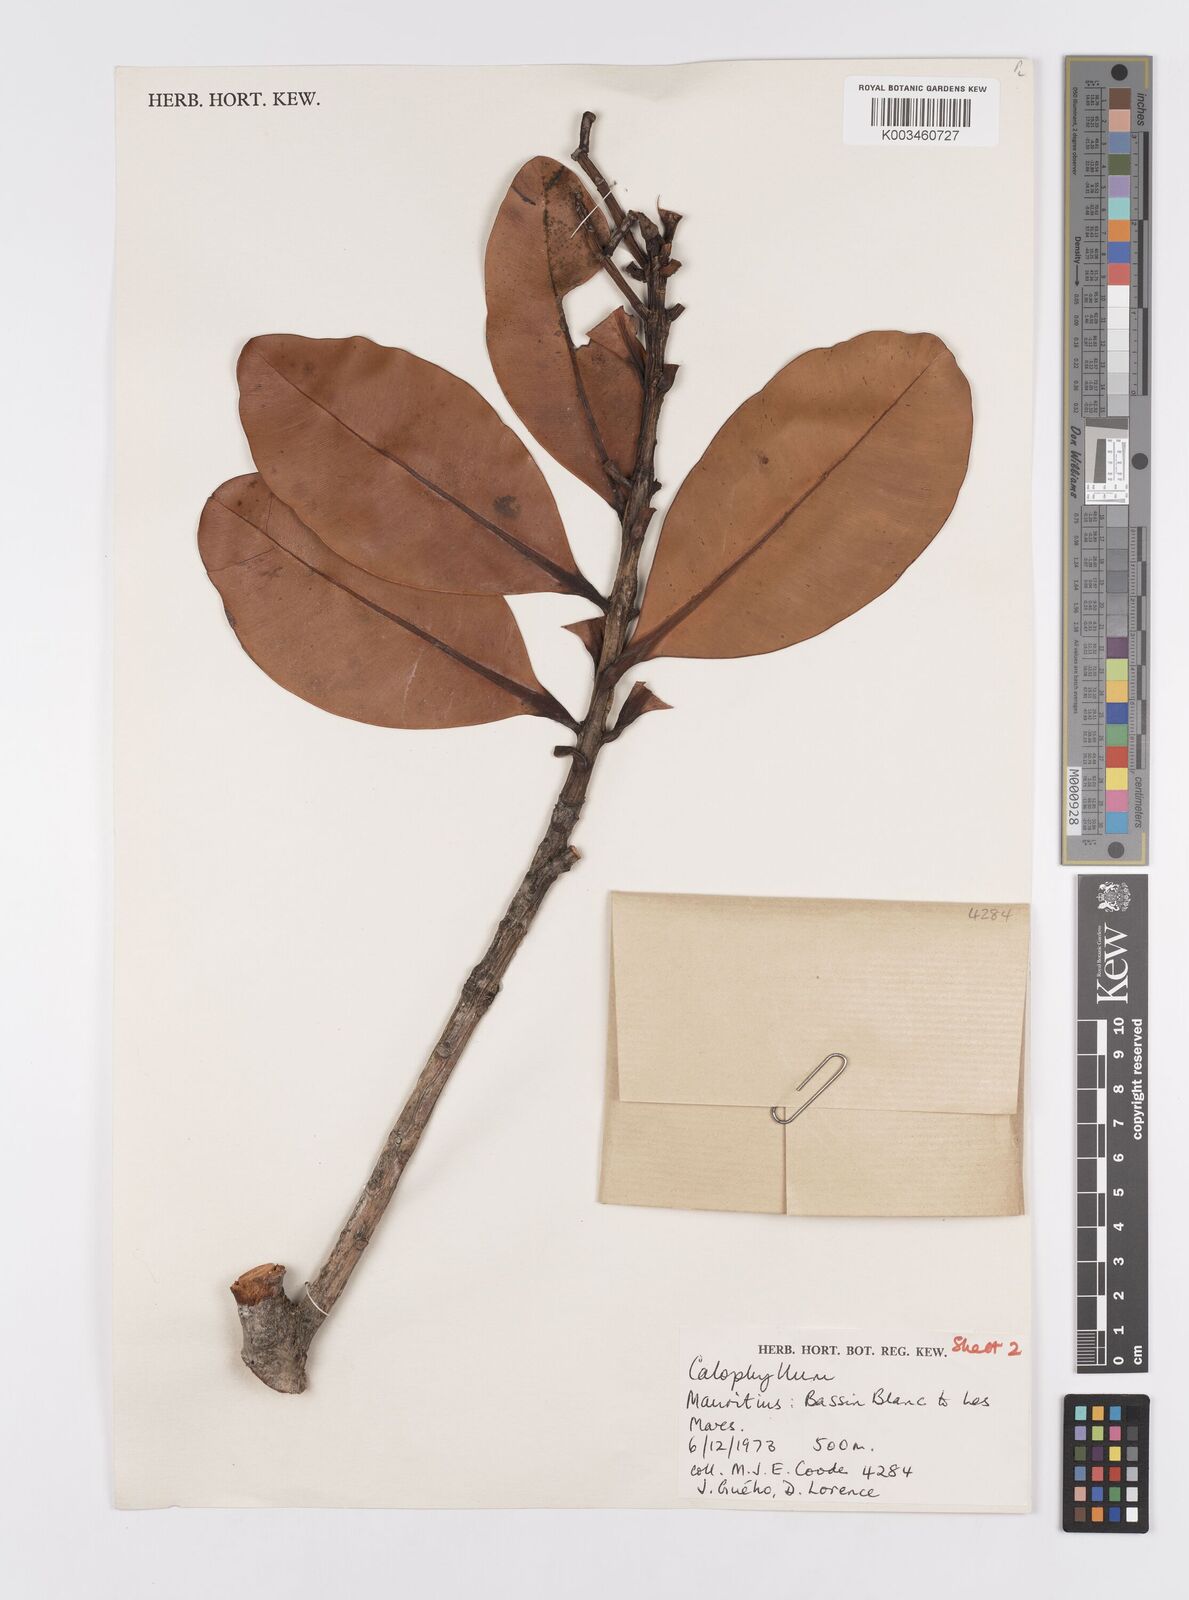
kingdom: Plantae
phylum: Tracheophyta
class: Magnoliopsida
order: Malpighiales
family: Calophyllaceae
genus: Calophyllum
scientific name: Calophyllum eputamen
